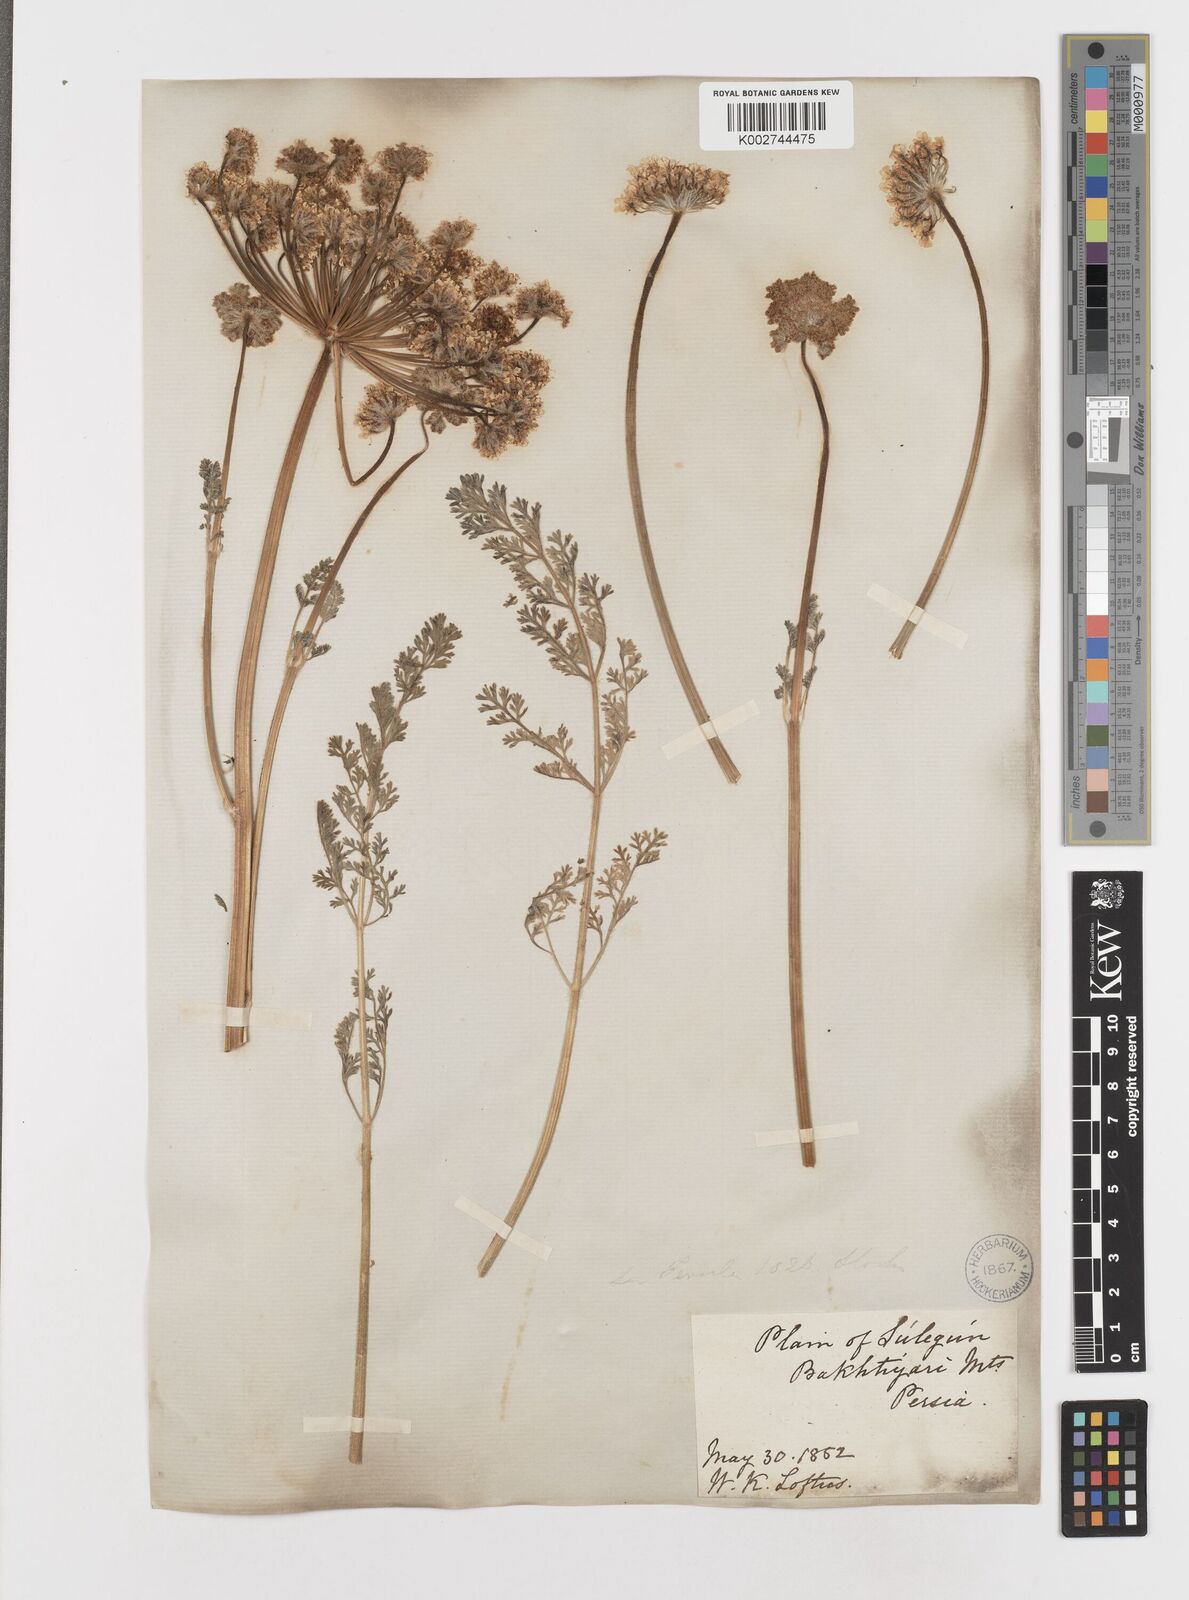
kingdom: Plantae
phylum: Tracheophyta
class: Magnoliopsida
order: Apiales
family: Apiaceae
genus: Zosima
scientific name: Zosima absinthiifolia
